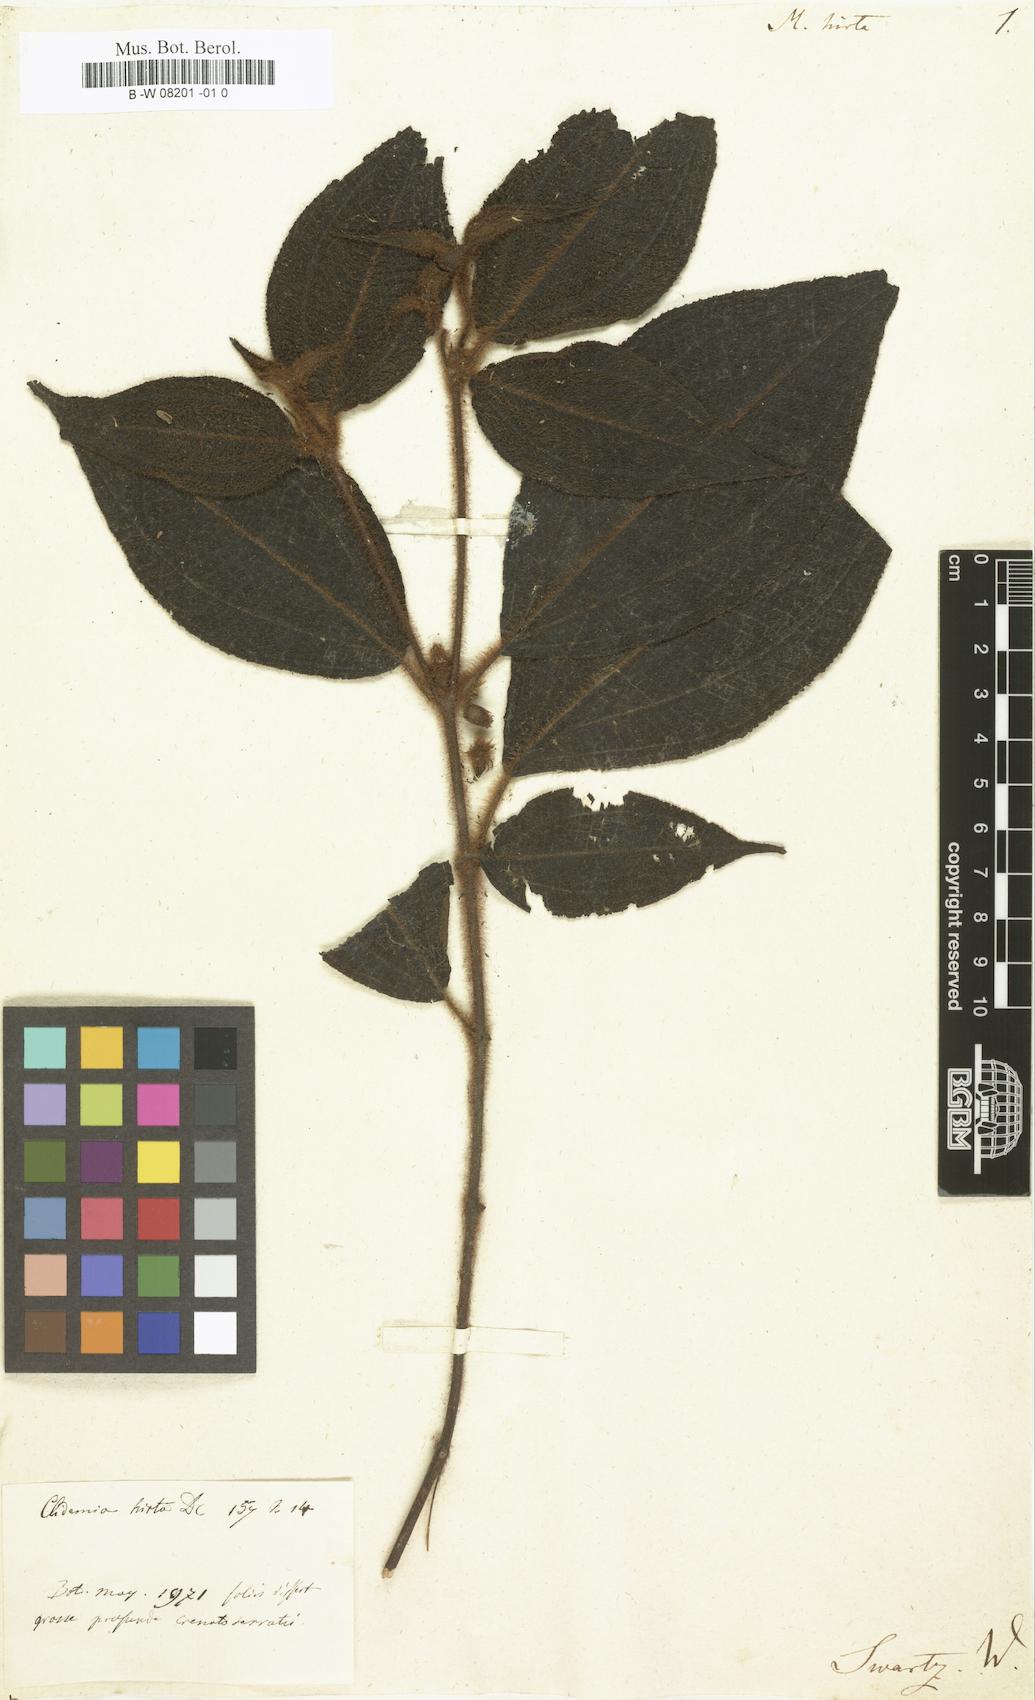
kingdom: Plantae
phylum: Tracheophyta
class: Magnoliopsida
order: Myrtales
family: Melastomataceae
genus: Melastoma
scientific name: Melastoma hirtum
